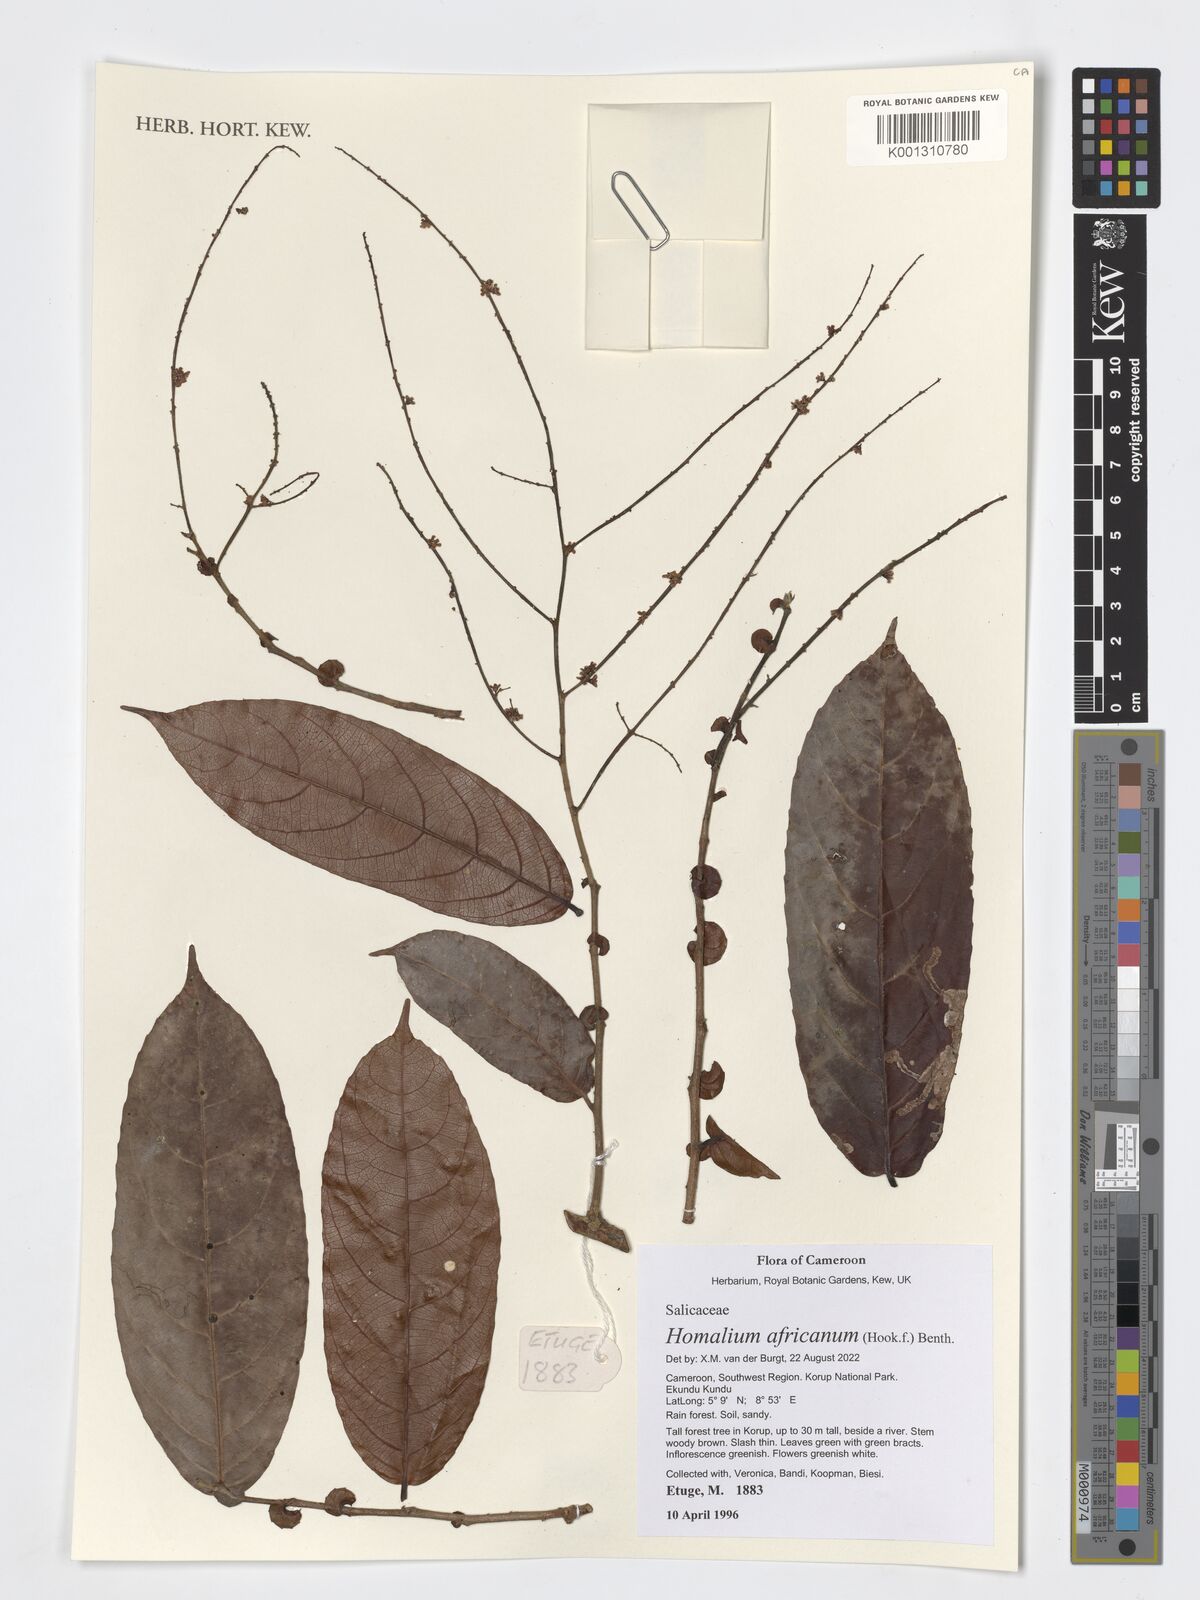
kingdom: Plantae
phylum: Tracheophyta
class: Magnoliopsida
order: Malpighiales
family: Salicaceae
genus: Homalium
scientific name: Homalium africanum
